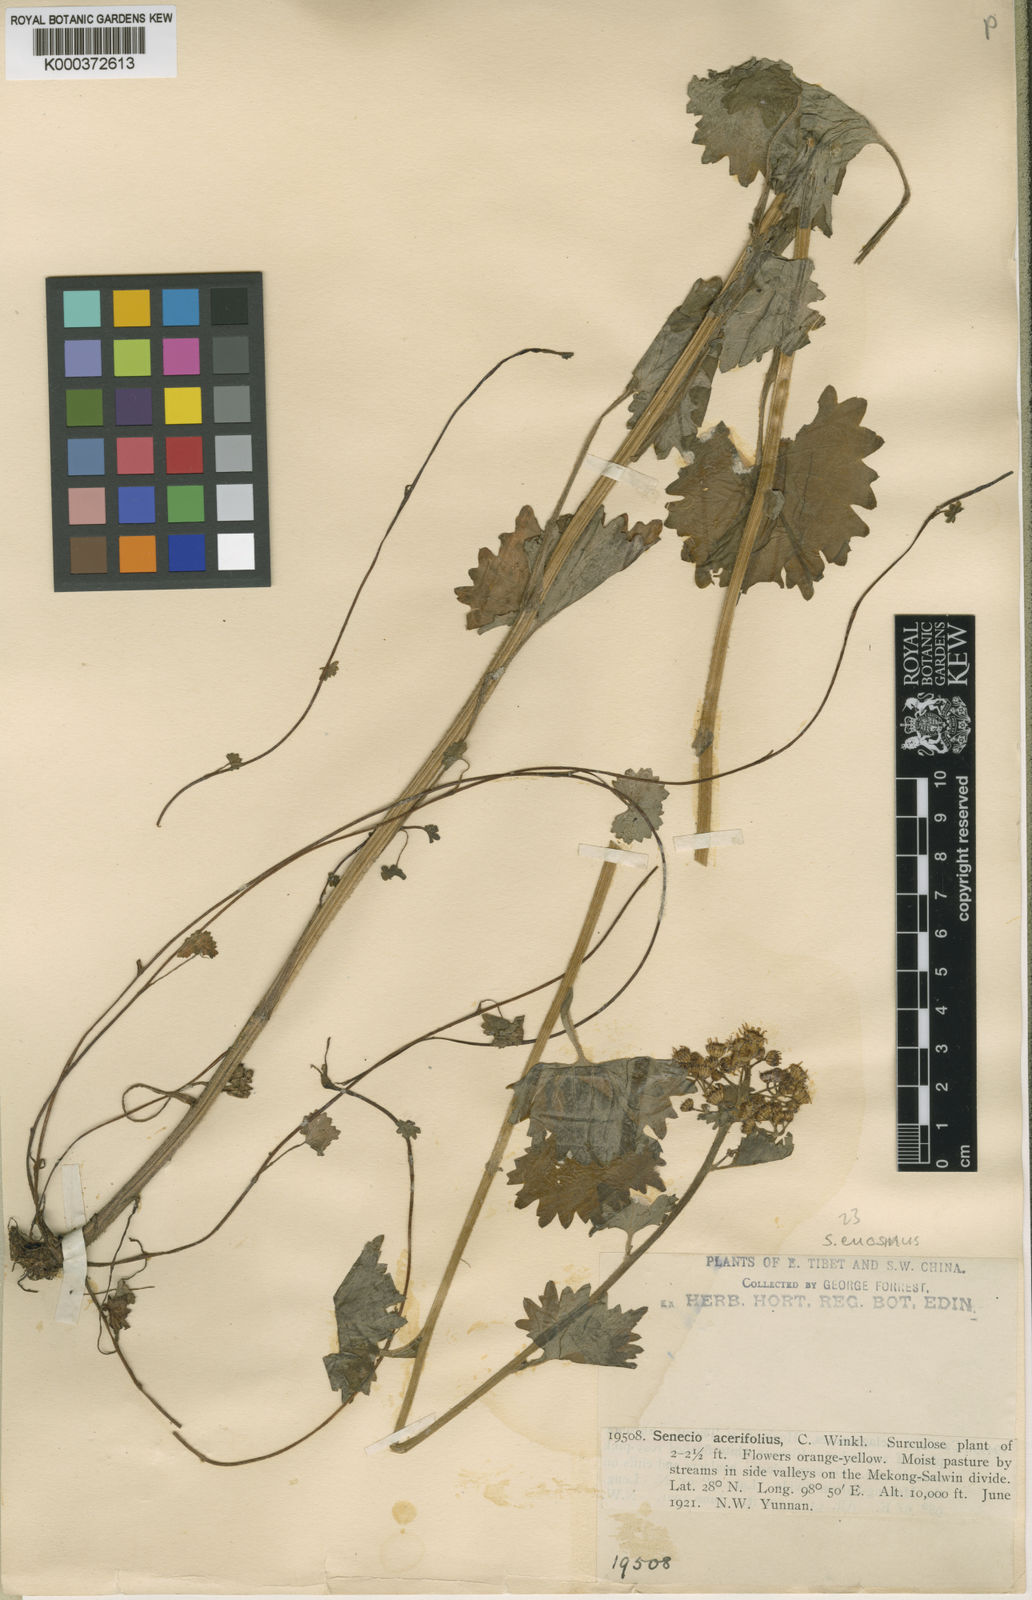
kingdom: Plantae
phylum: Tracheophyta
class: Magnoliopsida
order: Asterales
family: Asteraceae
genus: Sinosenecio
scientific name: Sinosenecio euosmus
